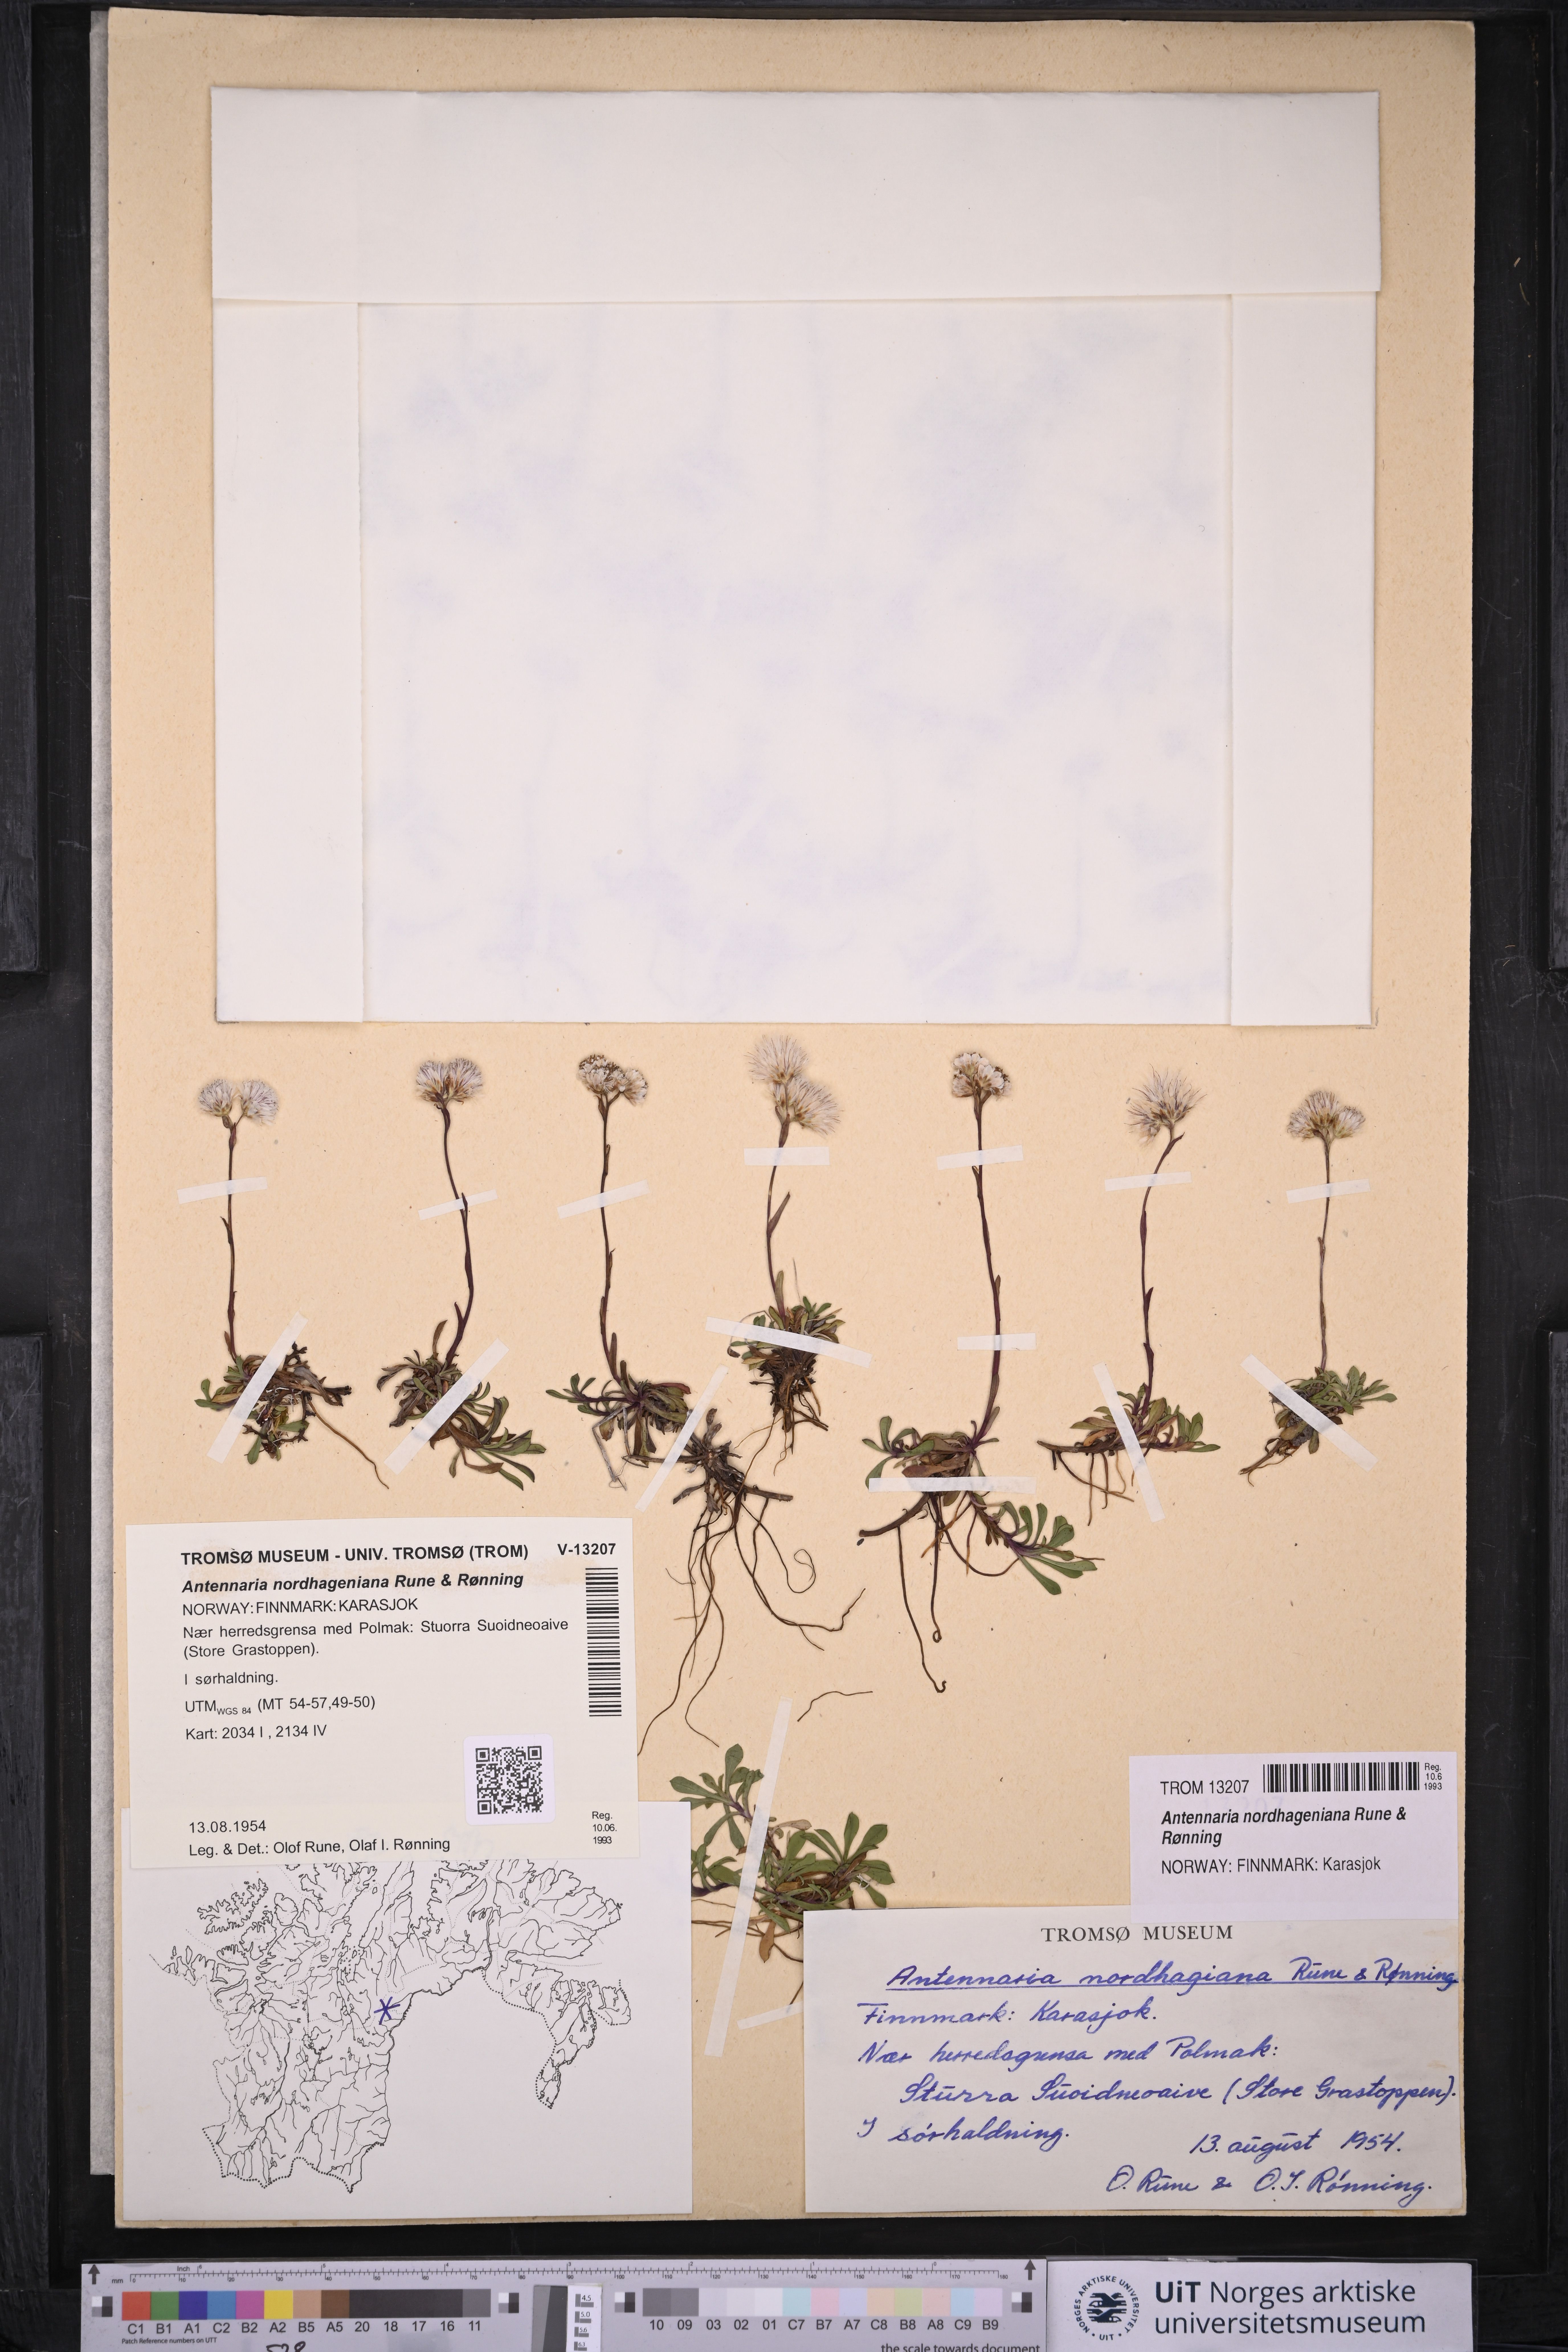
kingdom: Plantae
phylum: Tracheophyta
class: Magnoliopsida
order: Asterales
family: Asteraceae
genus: Antennaria
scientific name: Antennaria nordhageniana
